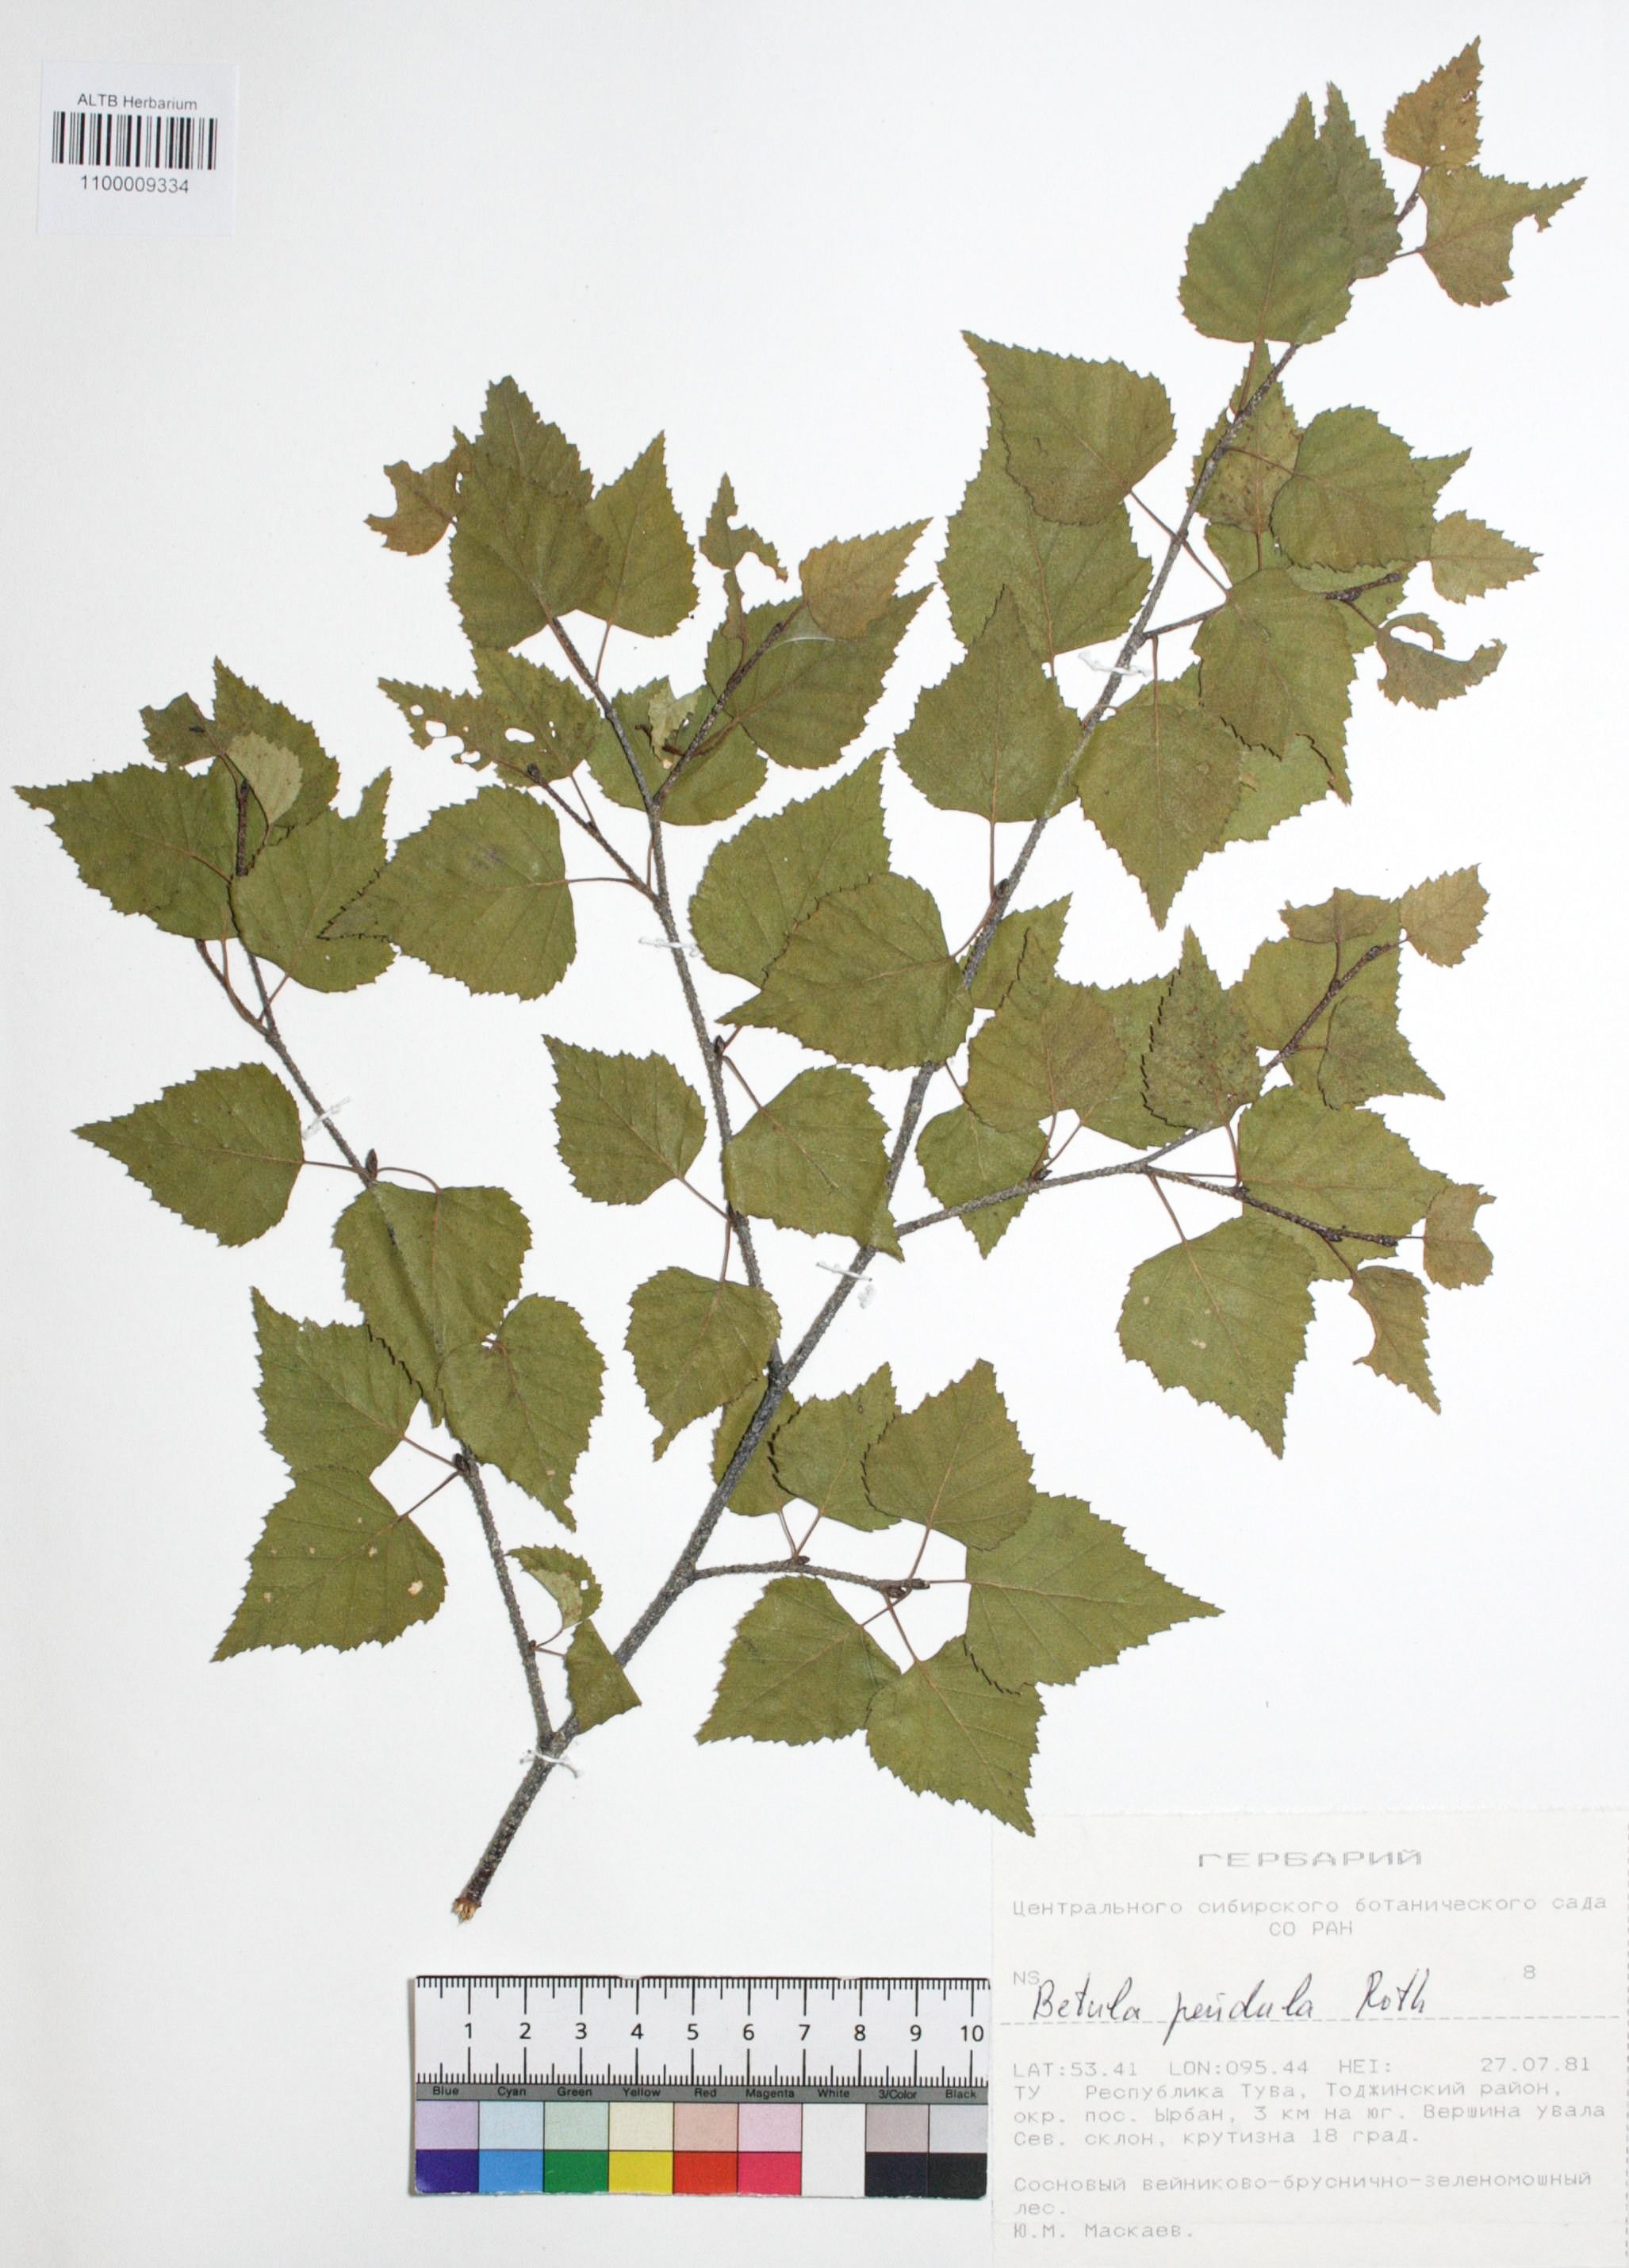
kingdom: Plantae
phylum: Tracheophyta
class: Magnoliopsida
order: Fagales
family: Betulaceae
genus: Betula
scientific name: Betula pendula
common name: Silver birch
